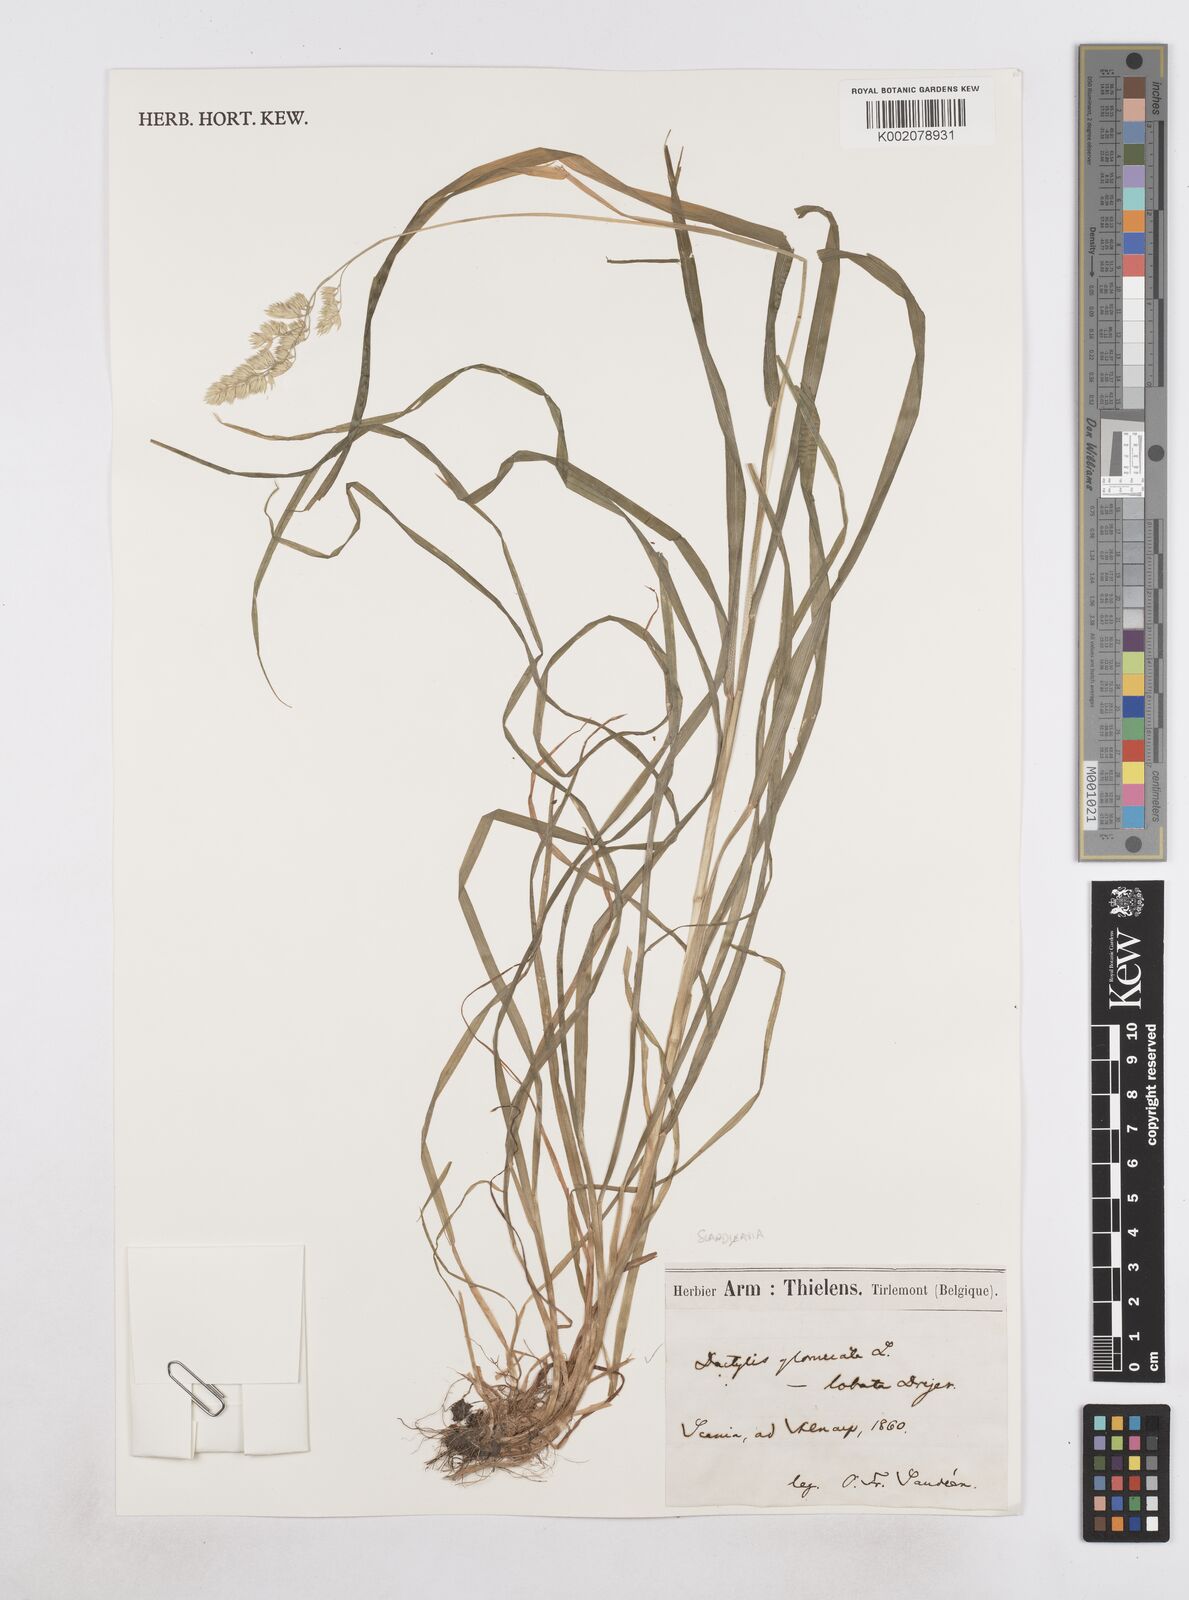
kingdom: Plantae
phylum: Tracheophyta
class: Liliopsida
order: Poales
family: Poaceae
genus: Dactylis
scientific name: Dactylis glomerata
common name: Orchardgrass
